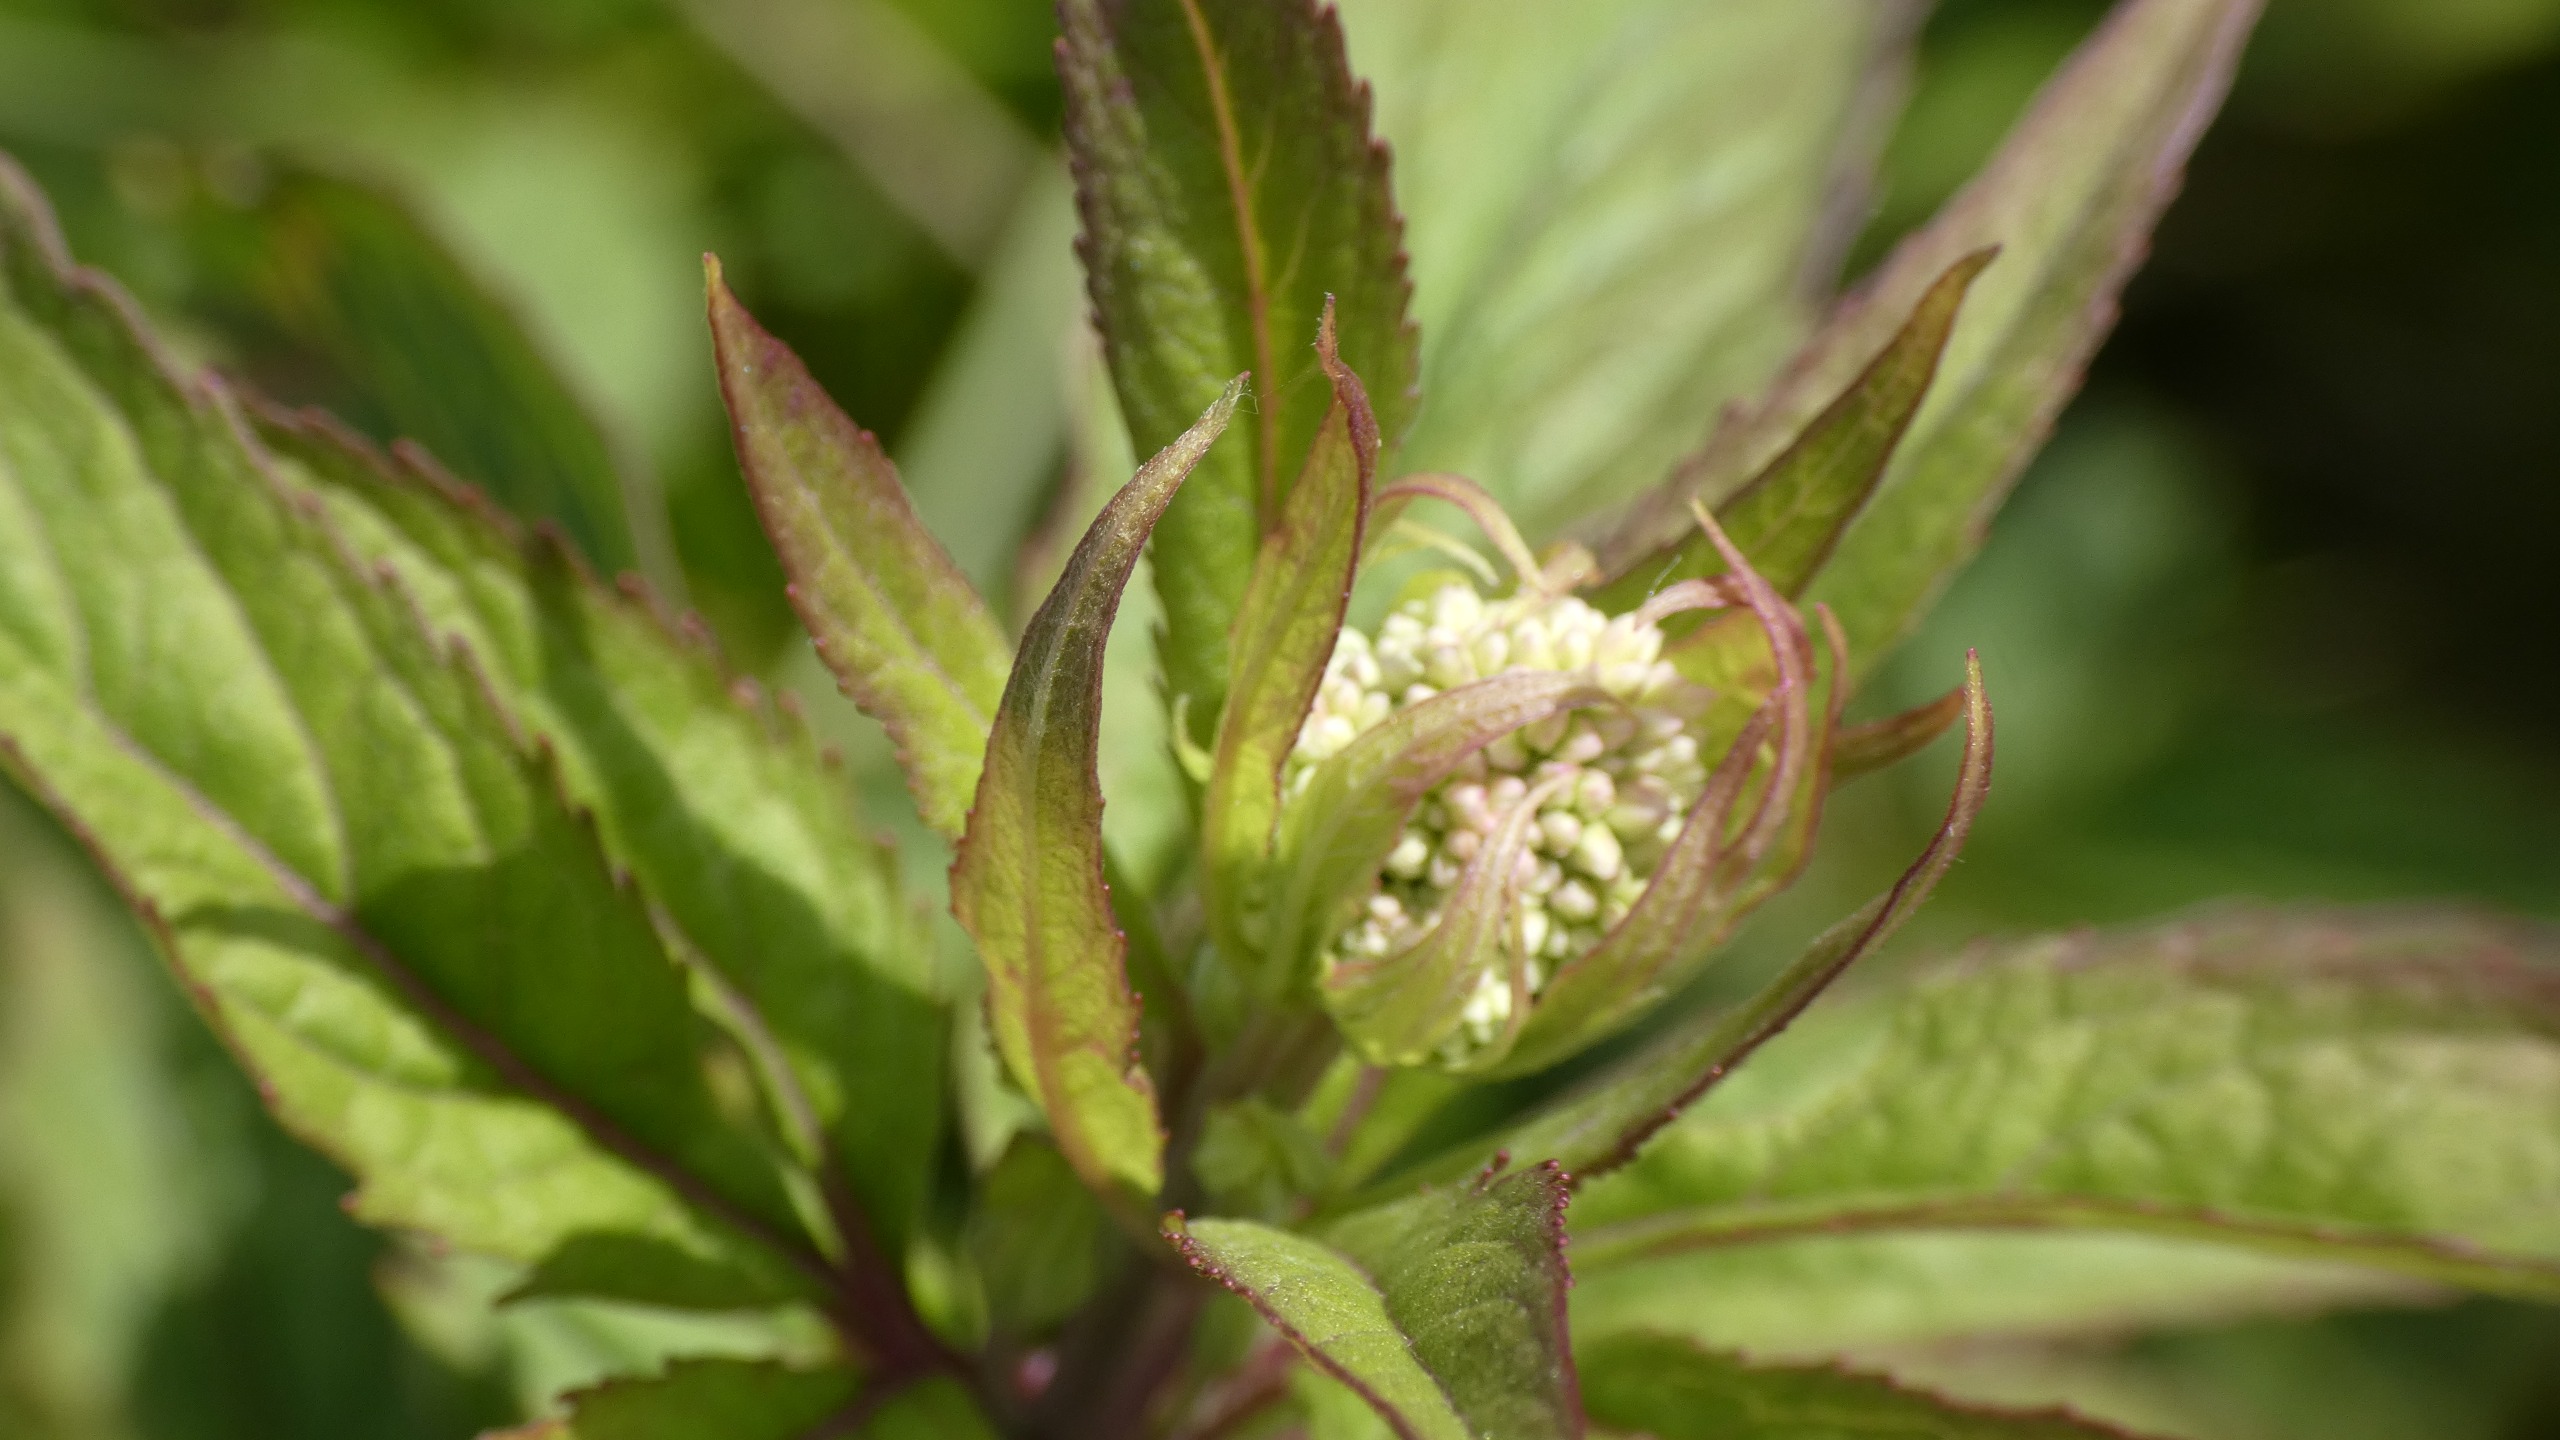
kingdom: Plantae
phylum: Tracheophyta
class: Magnoliopsida
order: Asterales
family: Asteraceae
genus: Eupatorium
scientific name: Eupatorium cannabinum
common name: Hjortetrøst
